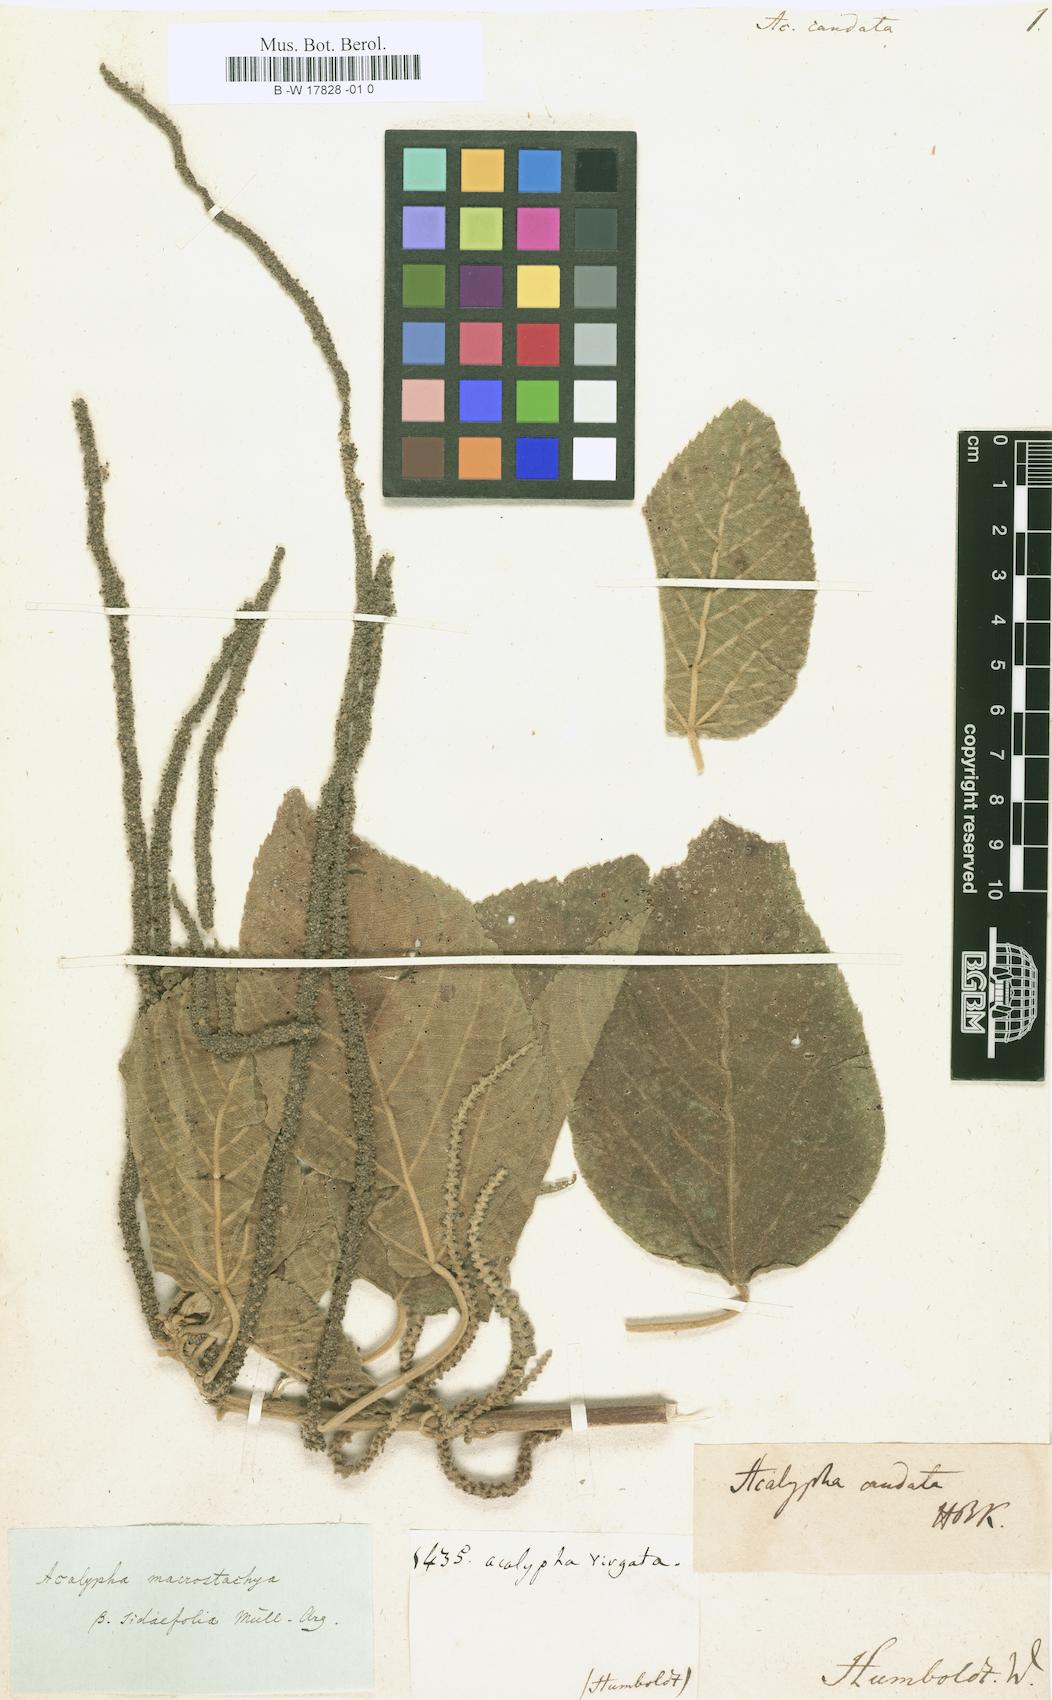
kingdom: Plantae
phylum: Tracheophyta
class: Magnoliopsida
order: Malpighiales
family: Euphorbiaceae
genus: Acalypha
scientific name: Acalypha macrostachya
